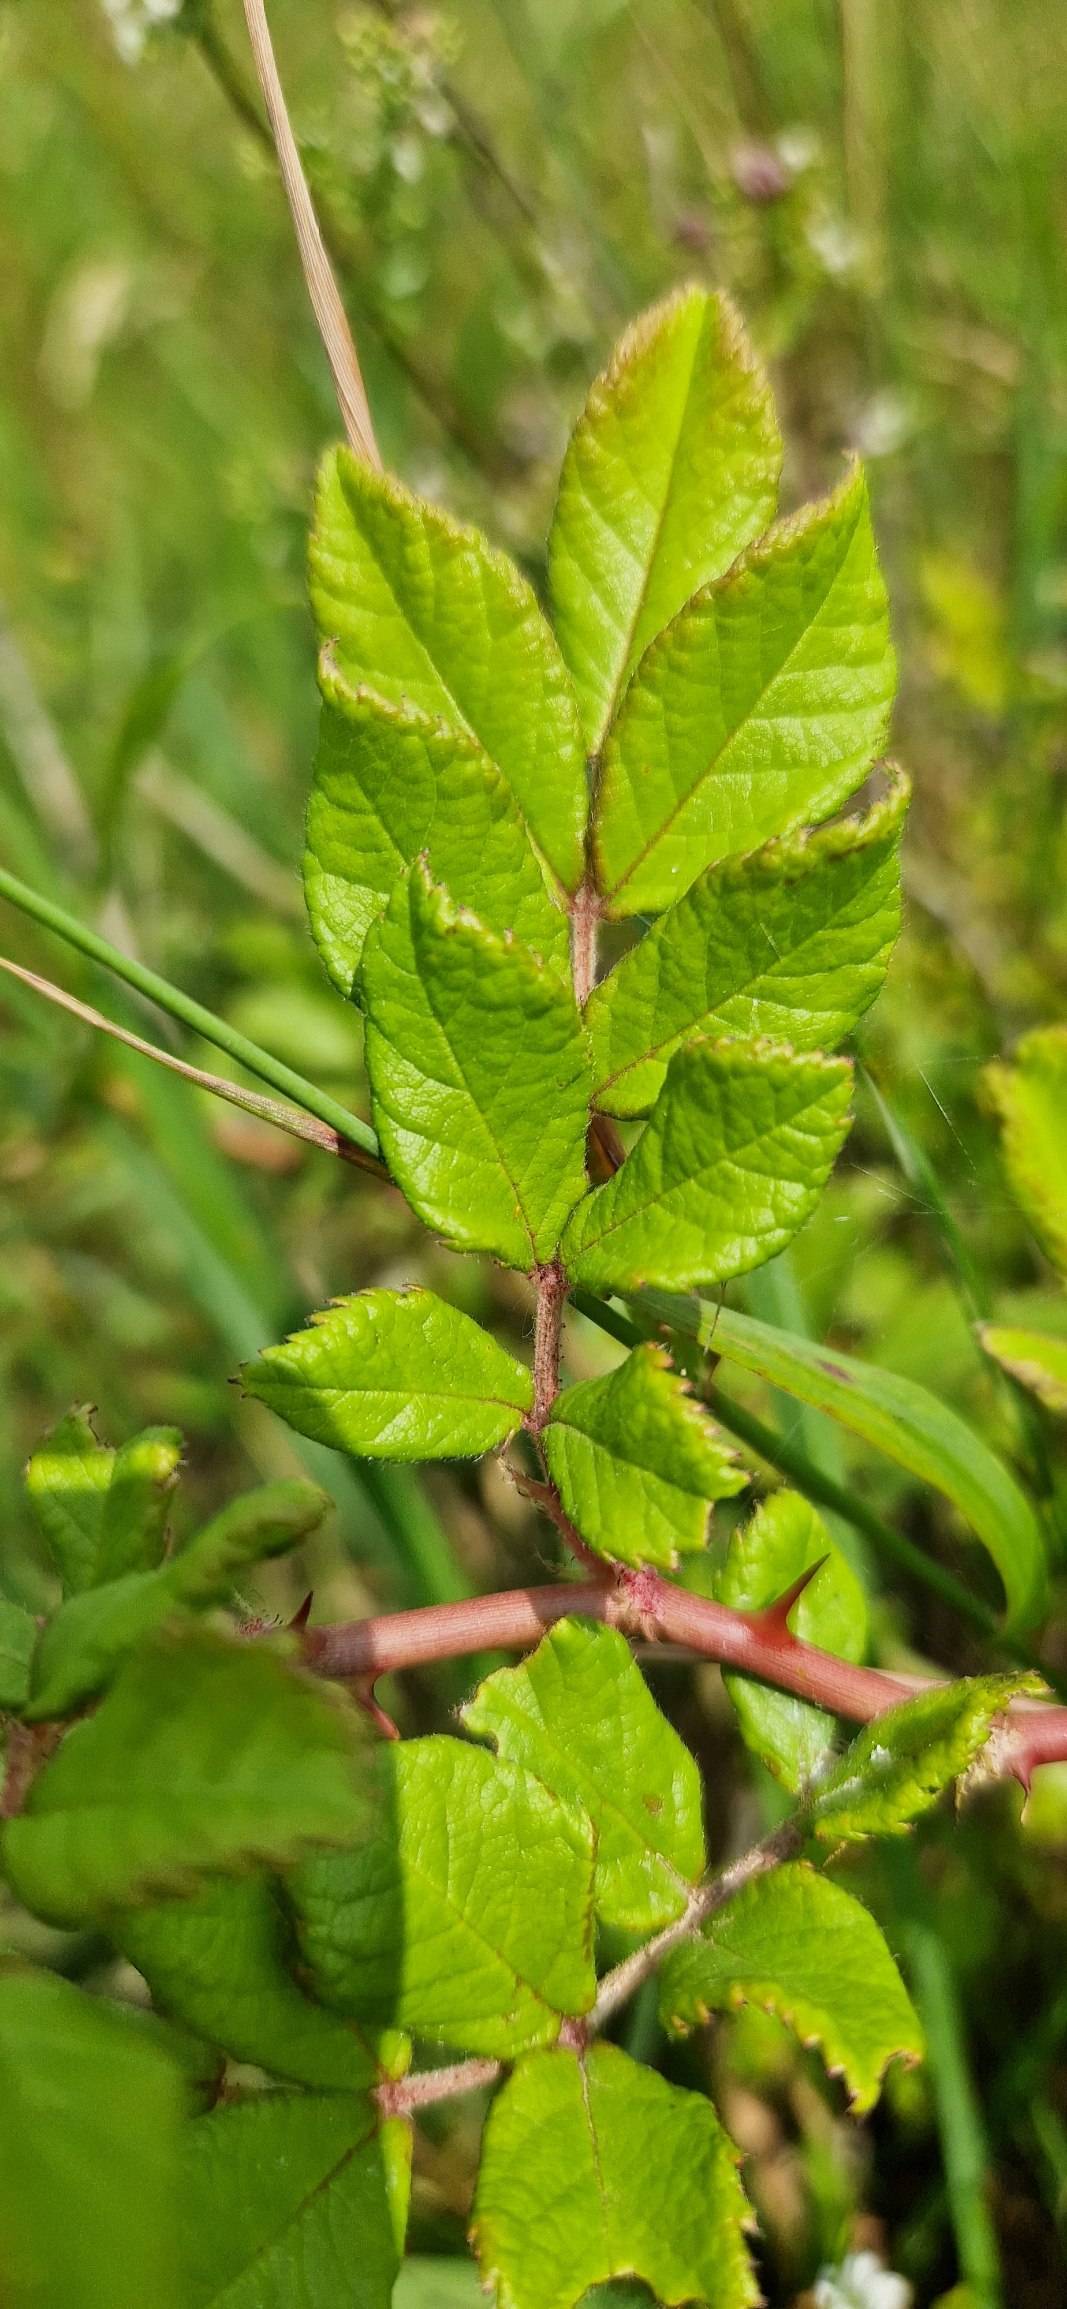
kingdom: Plantae
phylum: Tracheophyta
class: Magnoliopsida
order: Rosales
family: Rosaceae
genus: Rosa
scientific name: Rosa multiflora
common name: Mangeblomstret rose
